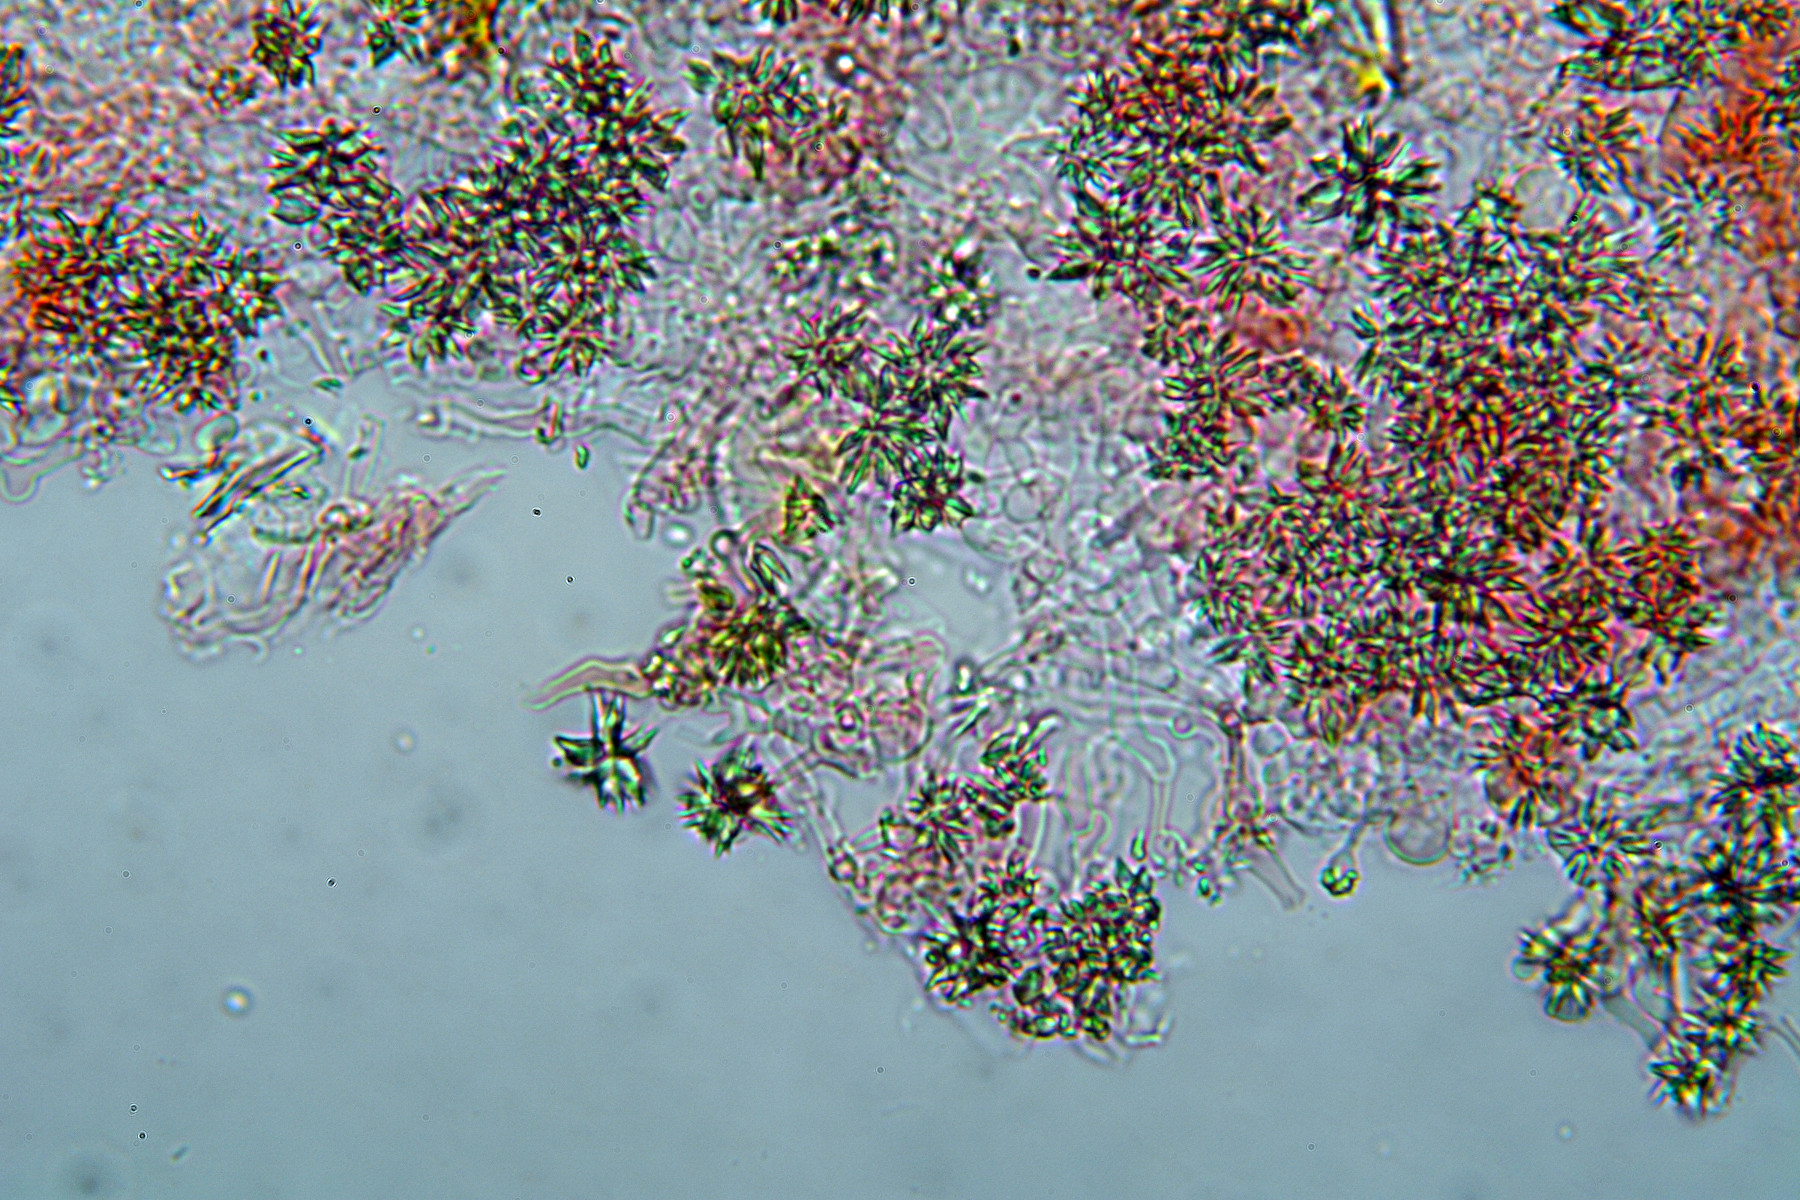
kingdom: Fungi
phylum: Basidiomycota
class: Agaricomycetes
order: Hymenochaetales
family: Rickenellaceae
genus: Resinicium
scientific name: Resinicium bicolor
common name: almindelig vokstand
